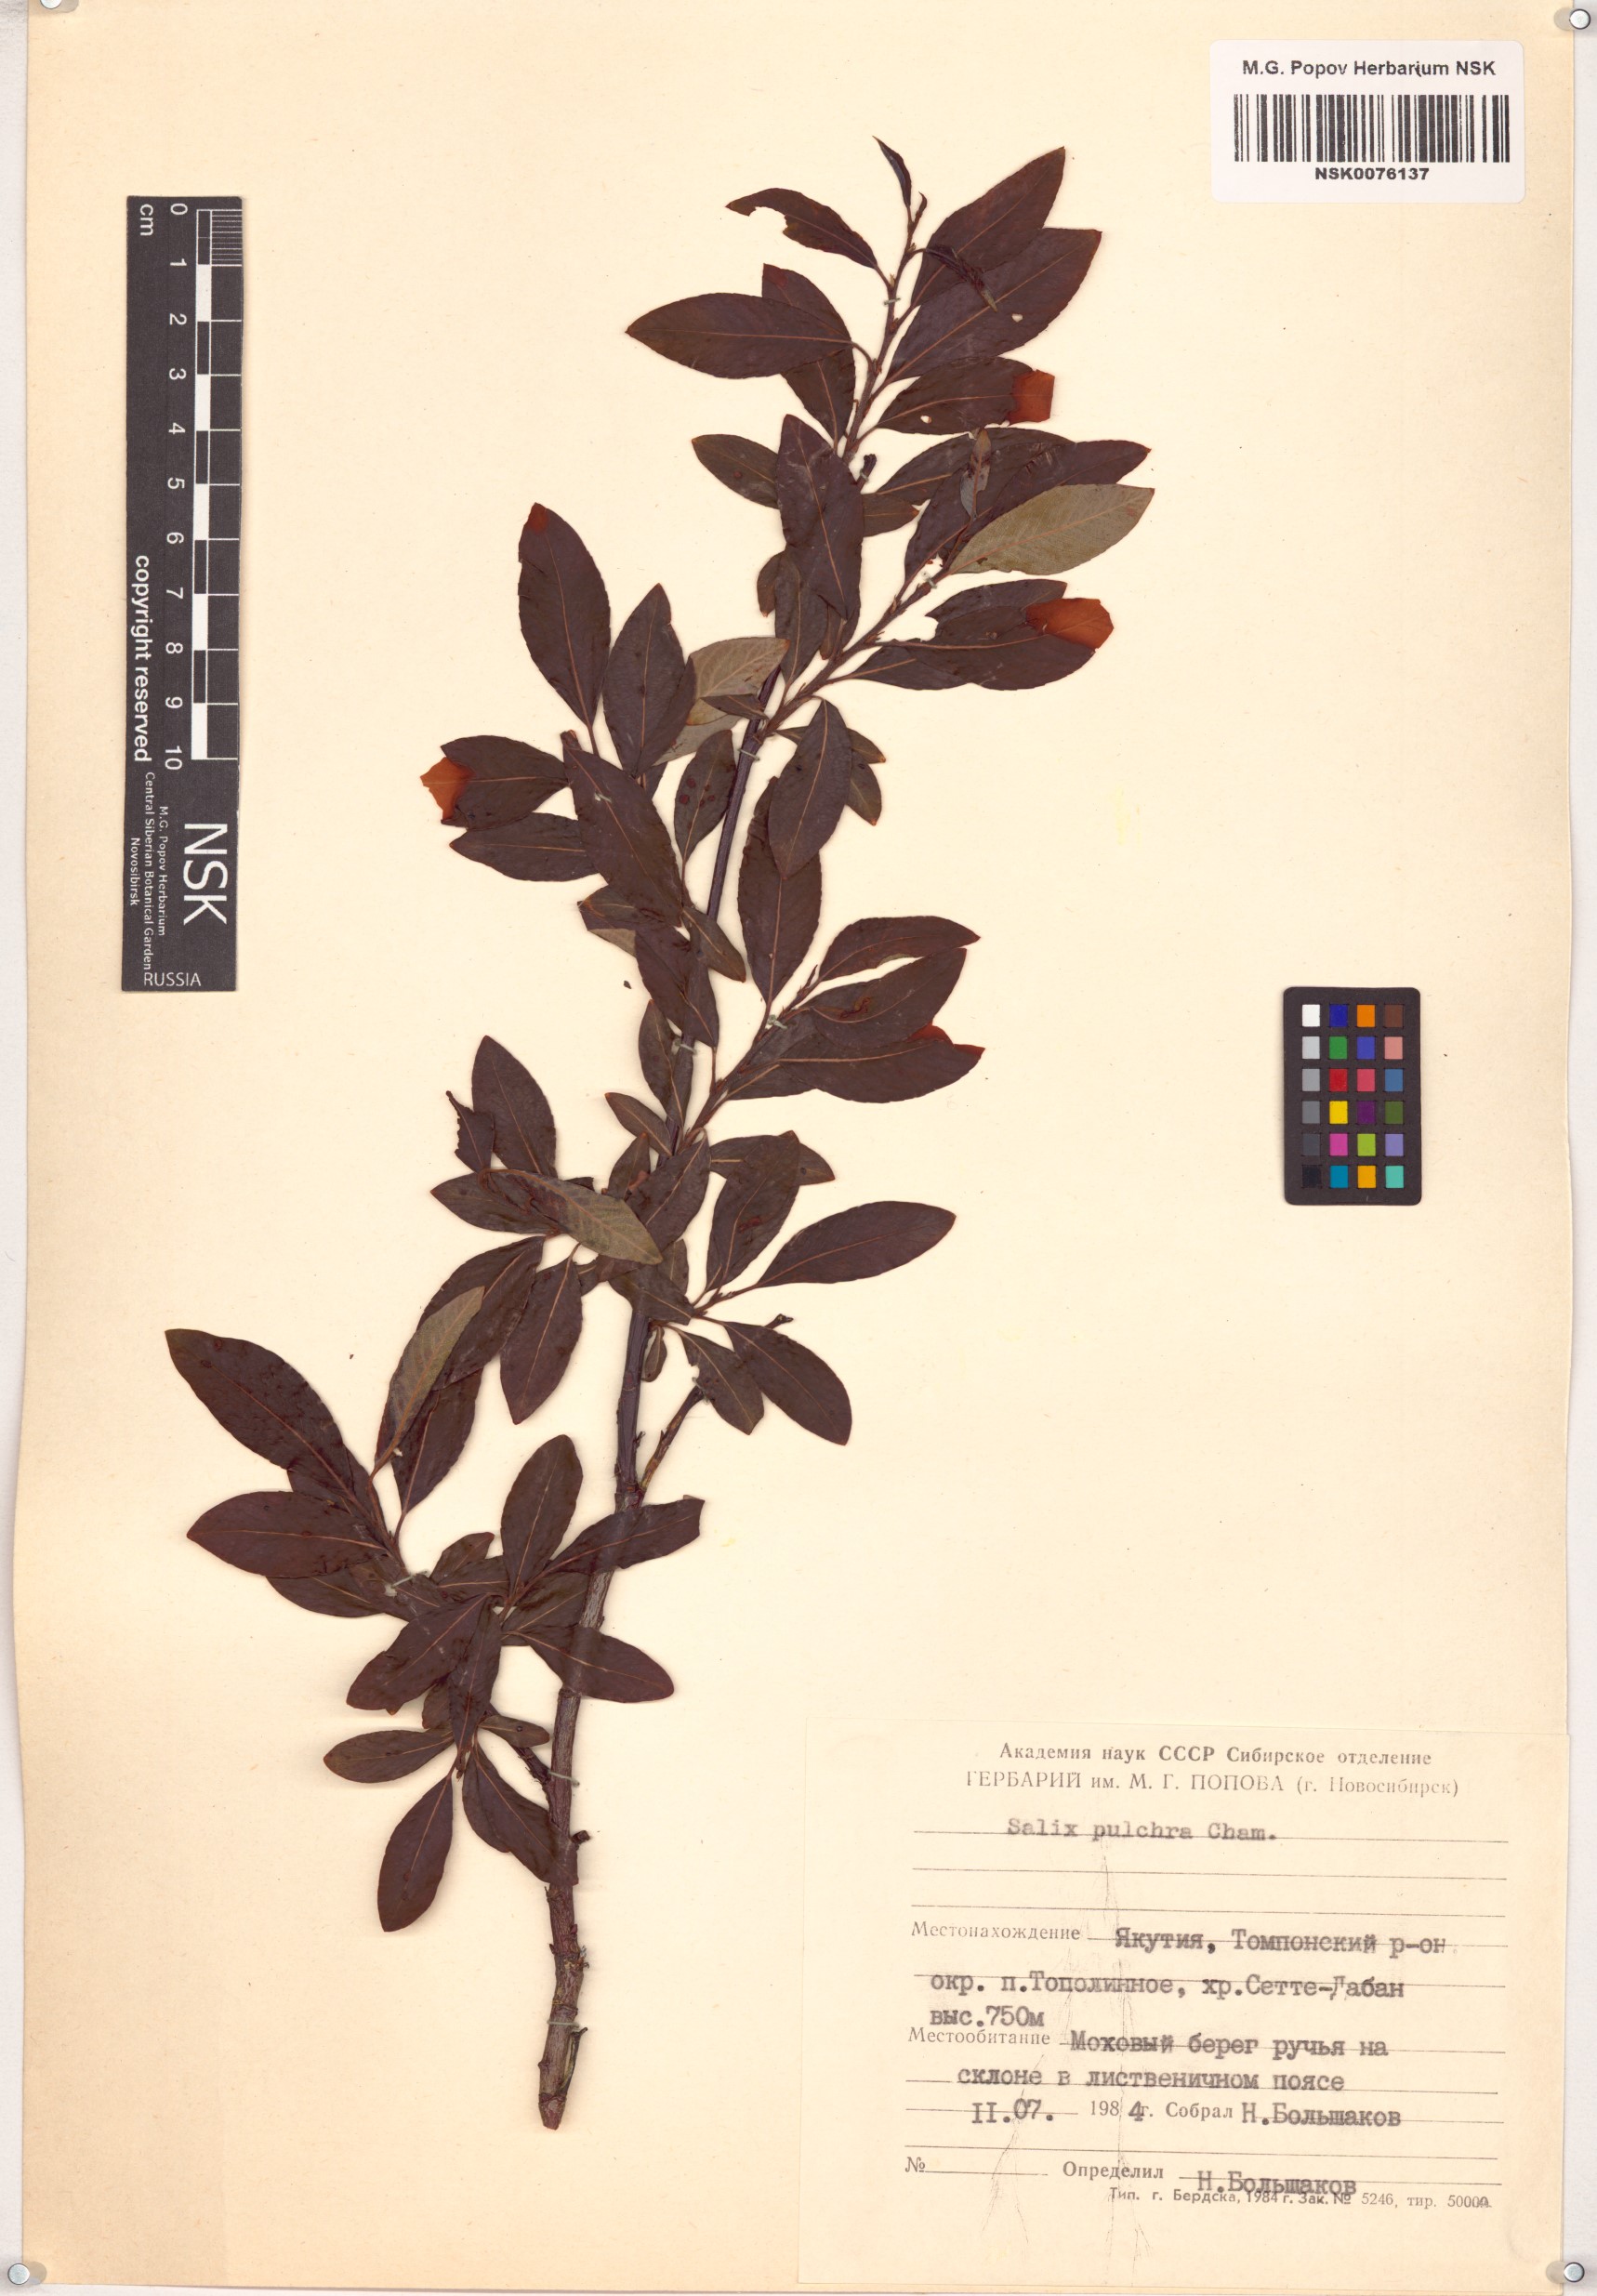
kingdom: Plantae
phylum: Tracheophyta
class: Magnoliopsida
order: Malpighiales
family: Salicaceae
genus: Salix
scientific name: Salix pulchra
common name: Diamond-leaved willow
